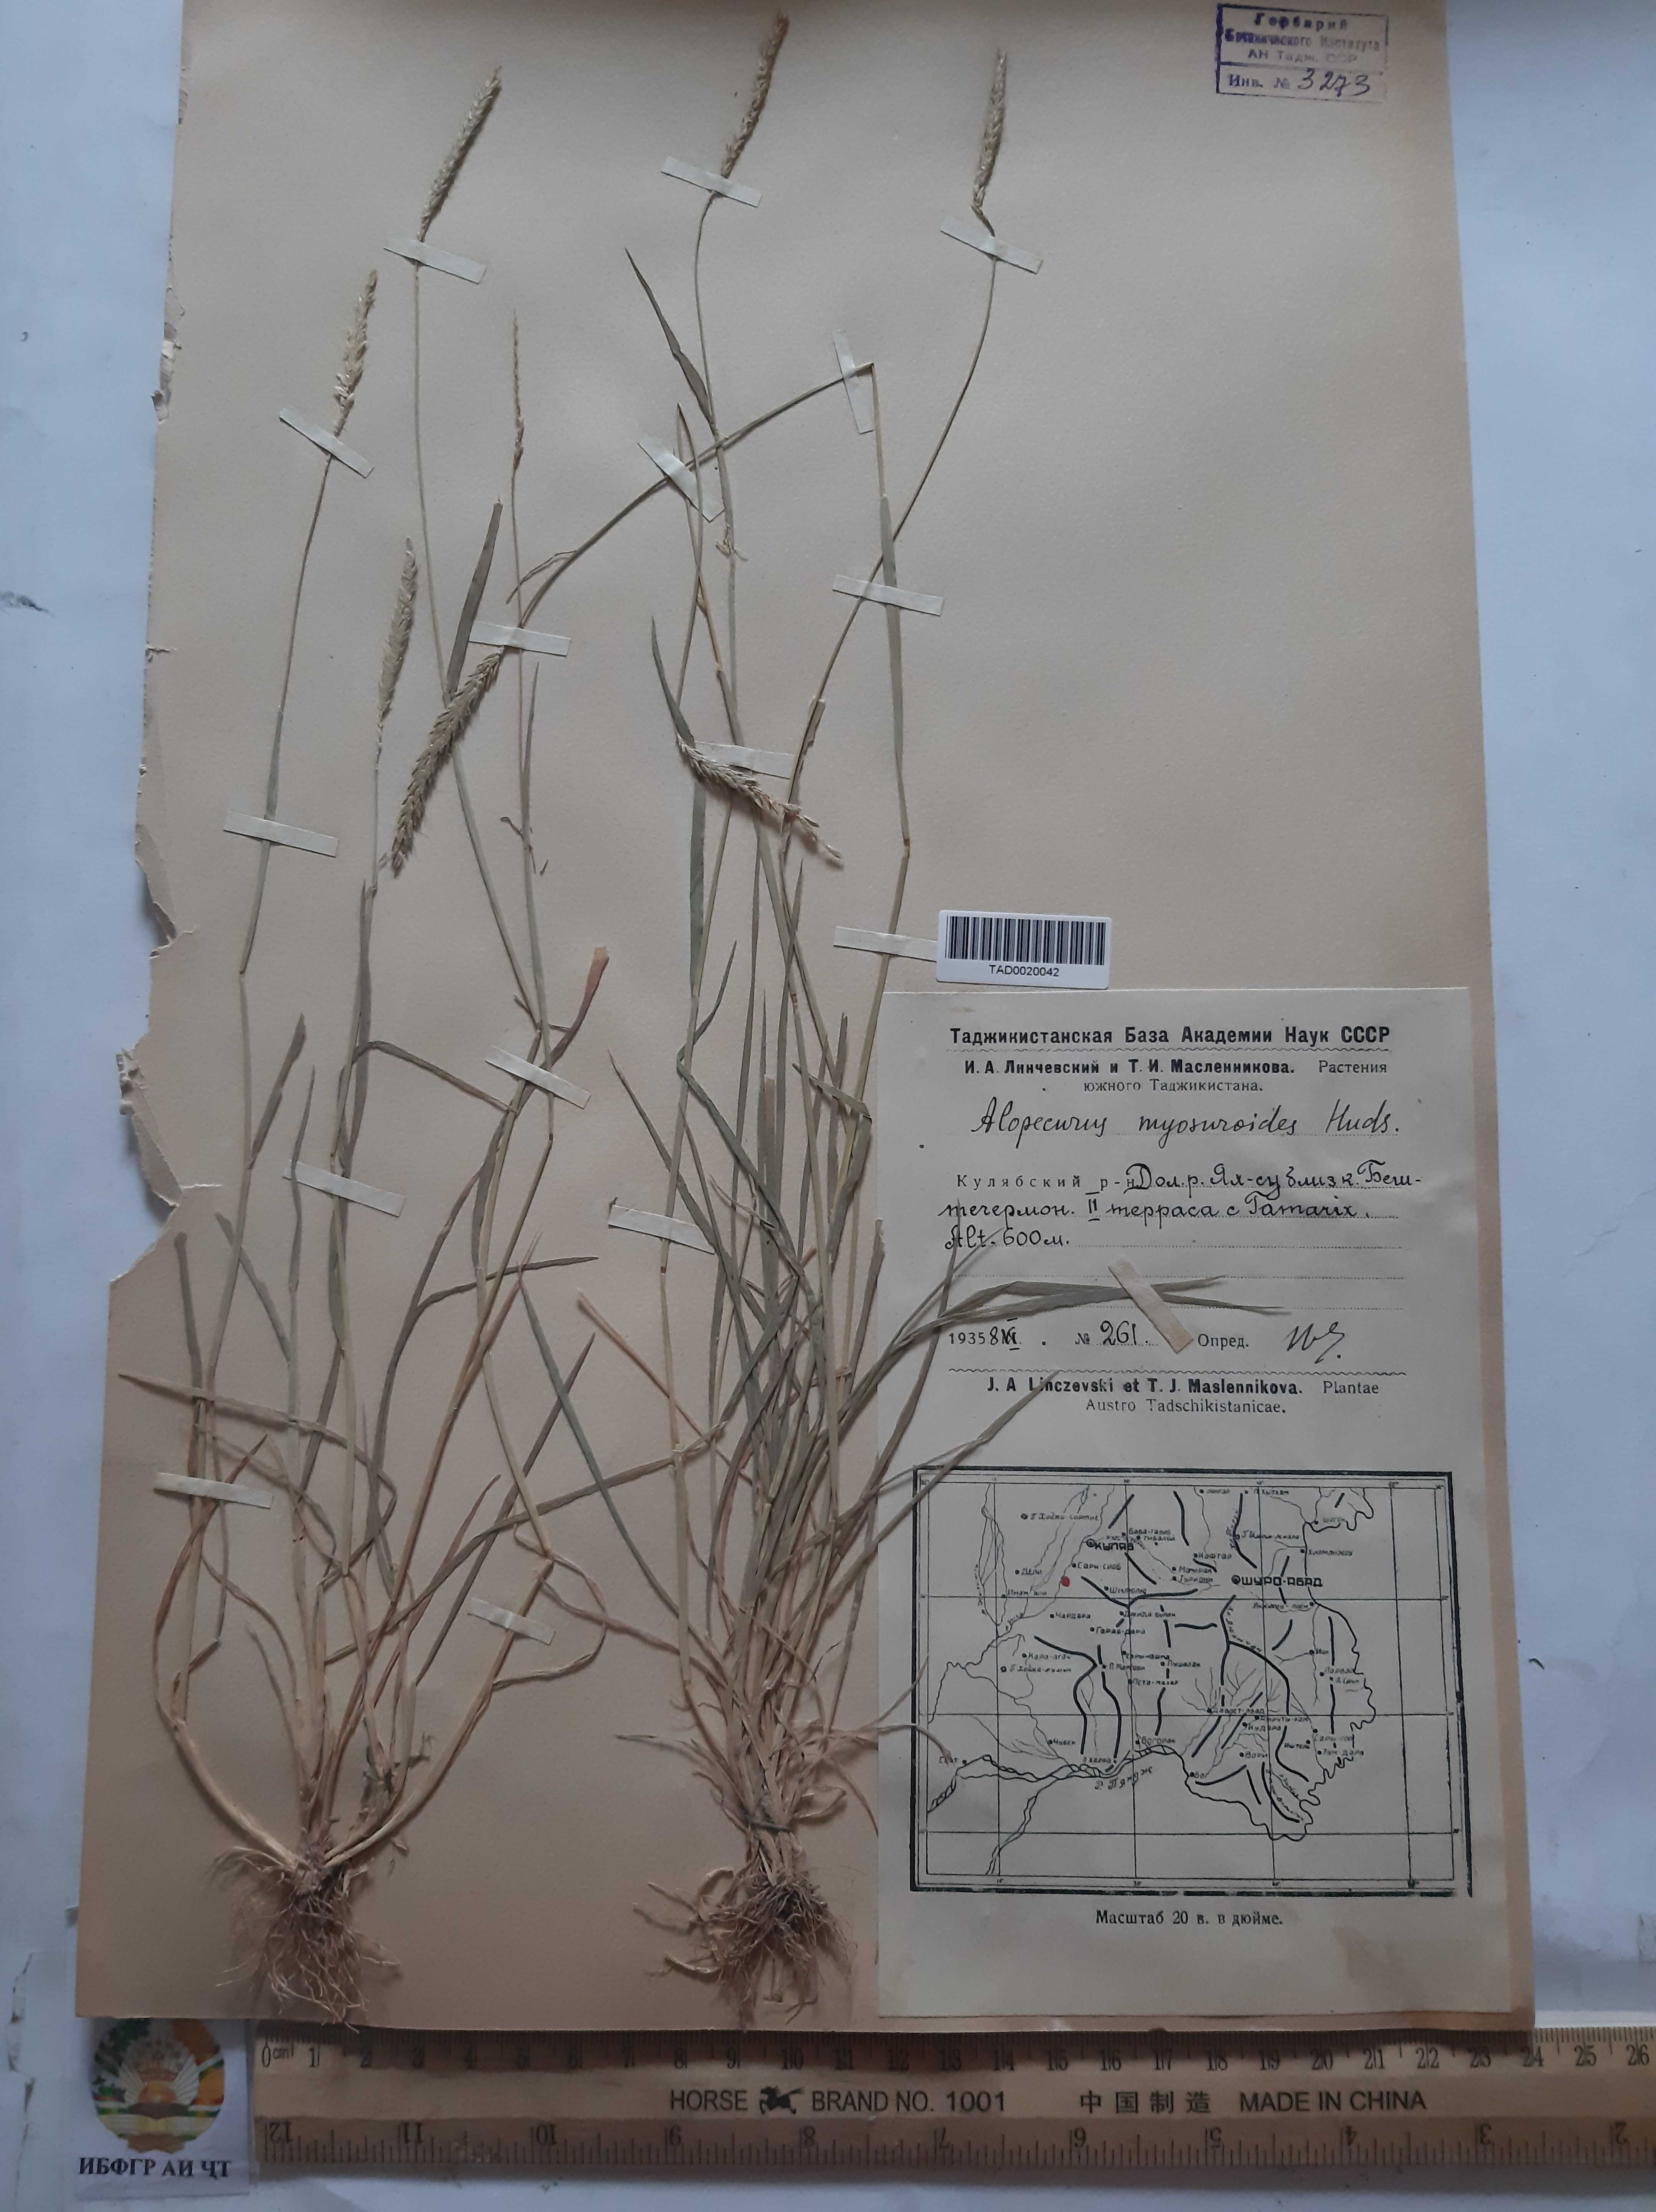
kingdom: Plantae
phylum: Tracheophyta
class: Liliopsida
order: Poales
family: Poaceae
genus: Alopecurus
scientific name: Alopecurus myosuroides
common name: Black-grass
